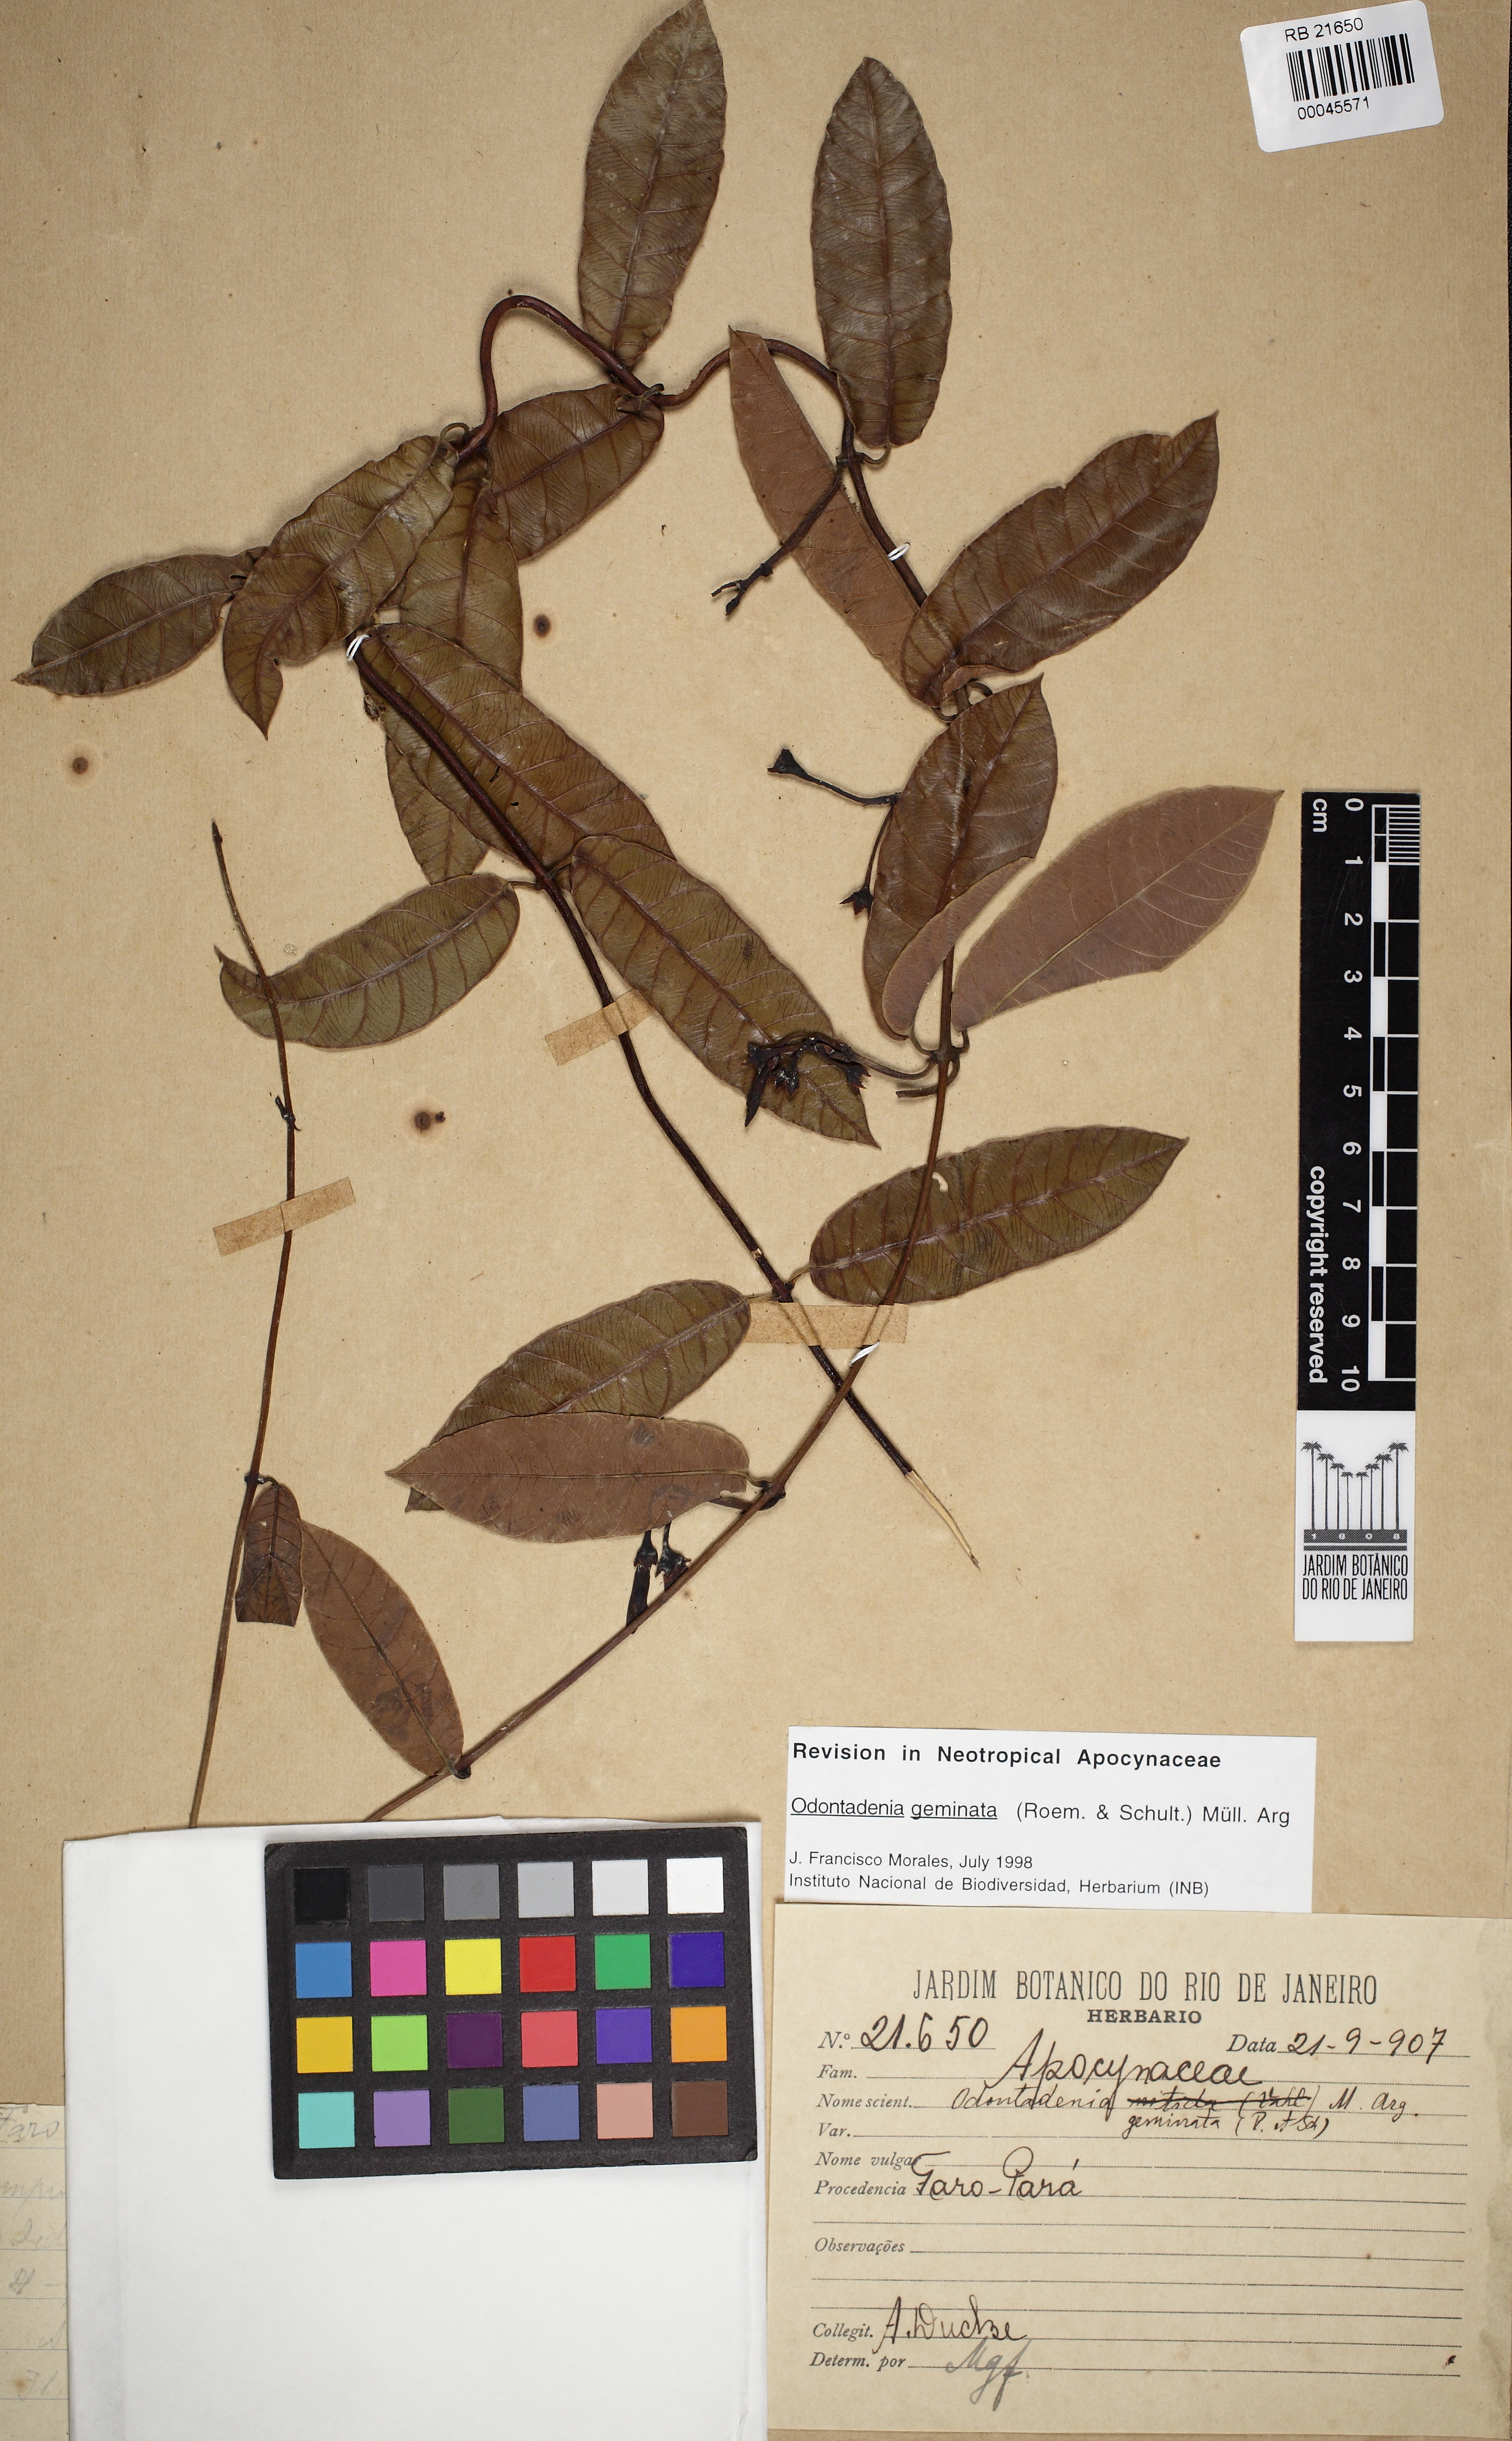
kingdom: Plantae
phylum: Tracheophyta
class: Magnoliopsida
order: Gentianales
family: Apocynaceae
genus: Odontadenia
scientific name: Odontadenia geminata
